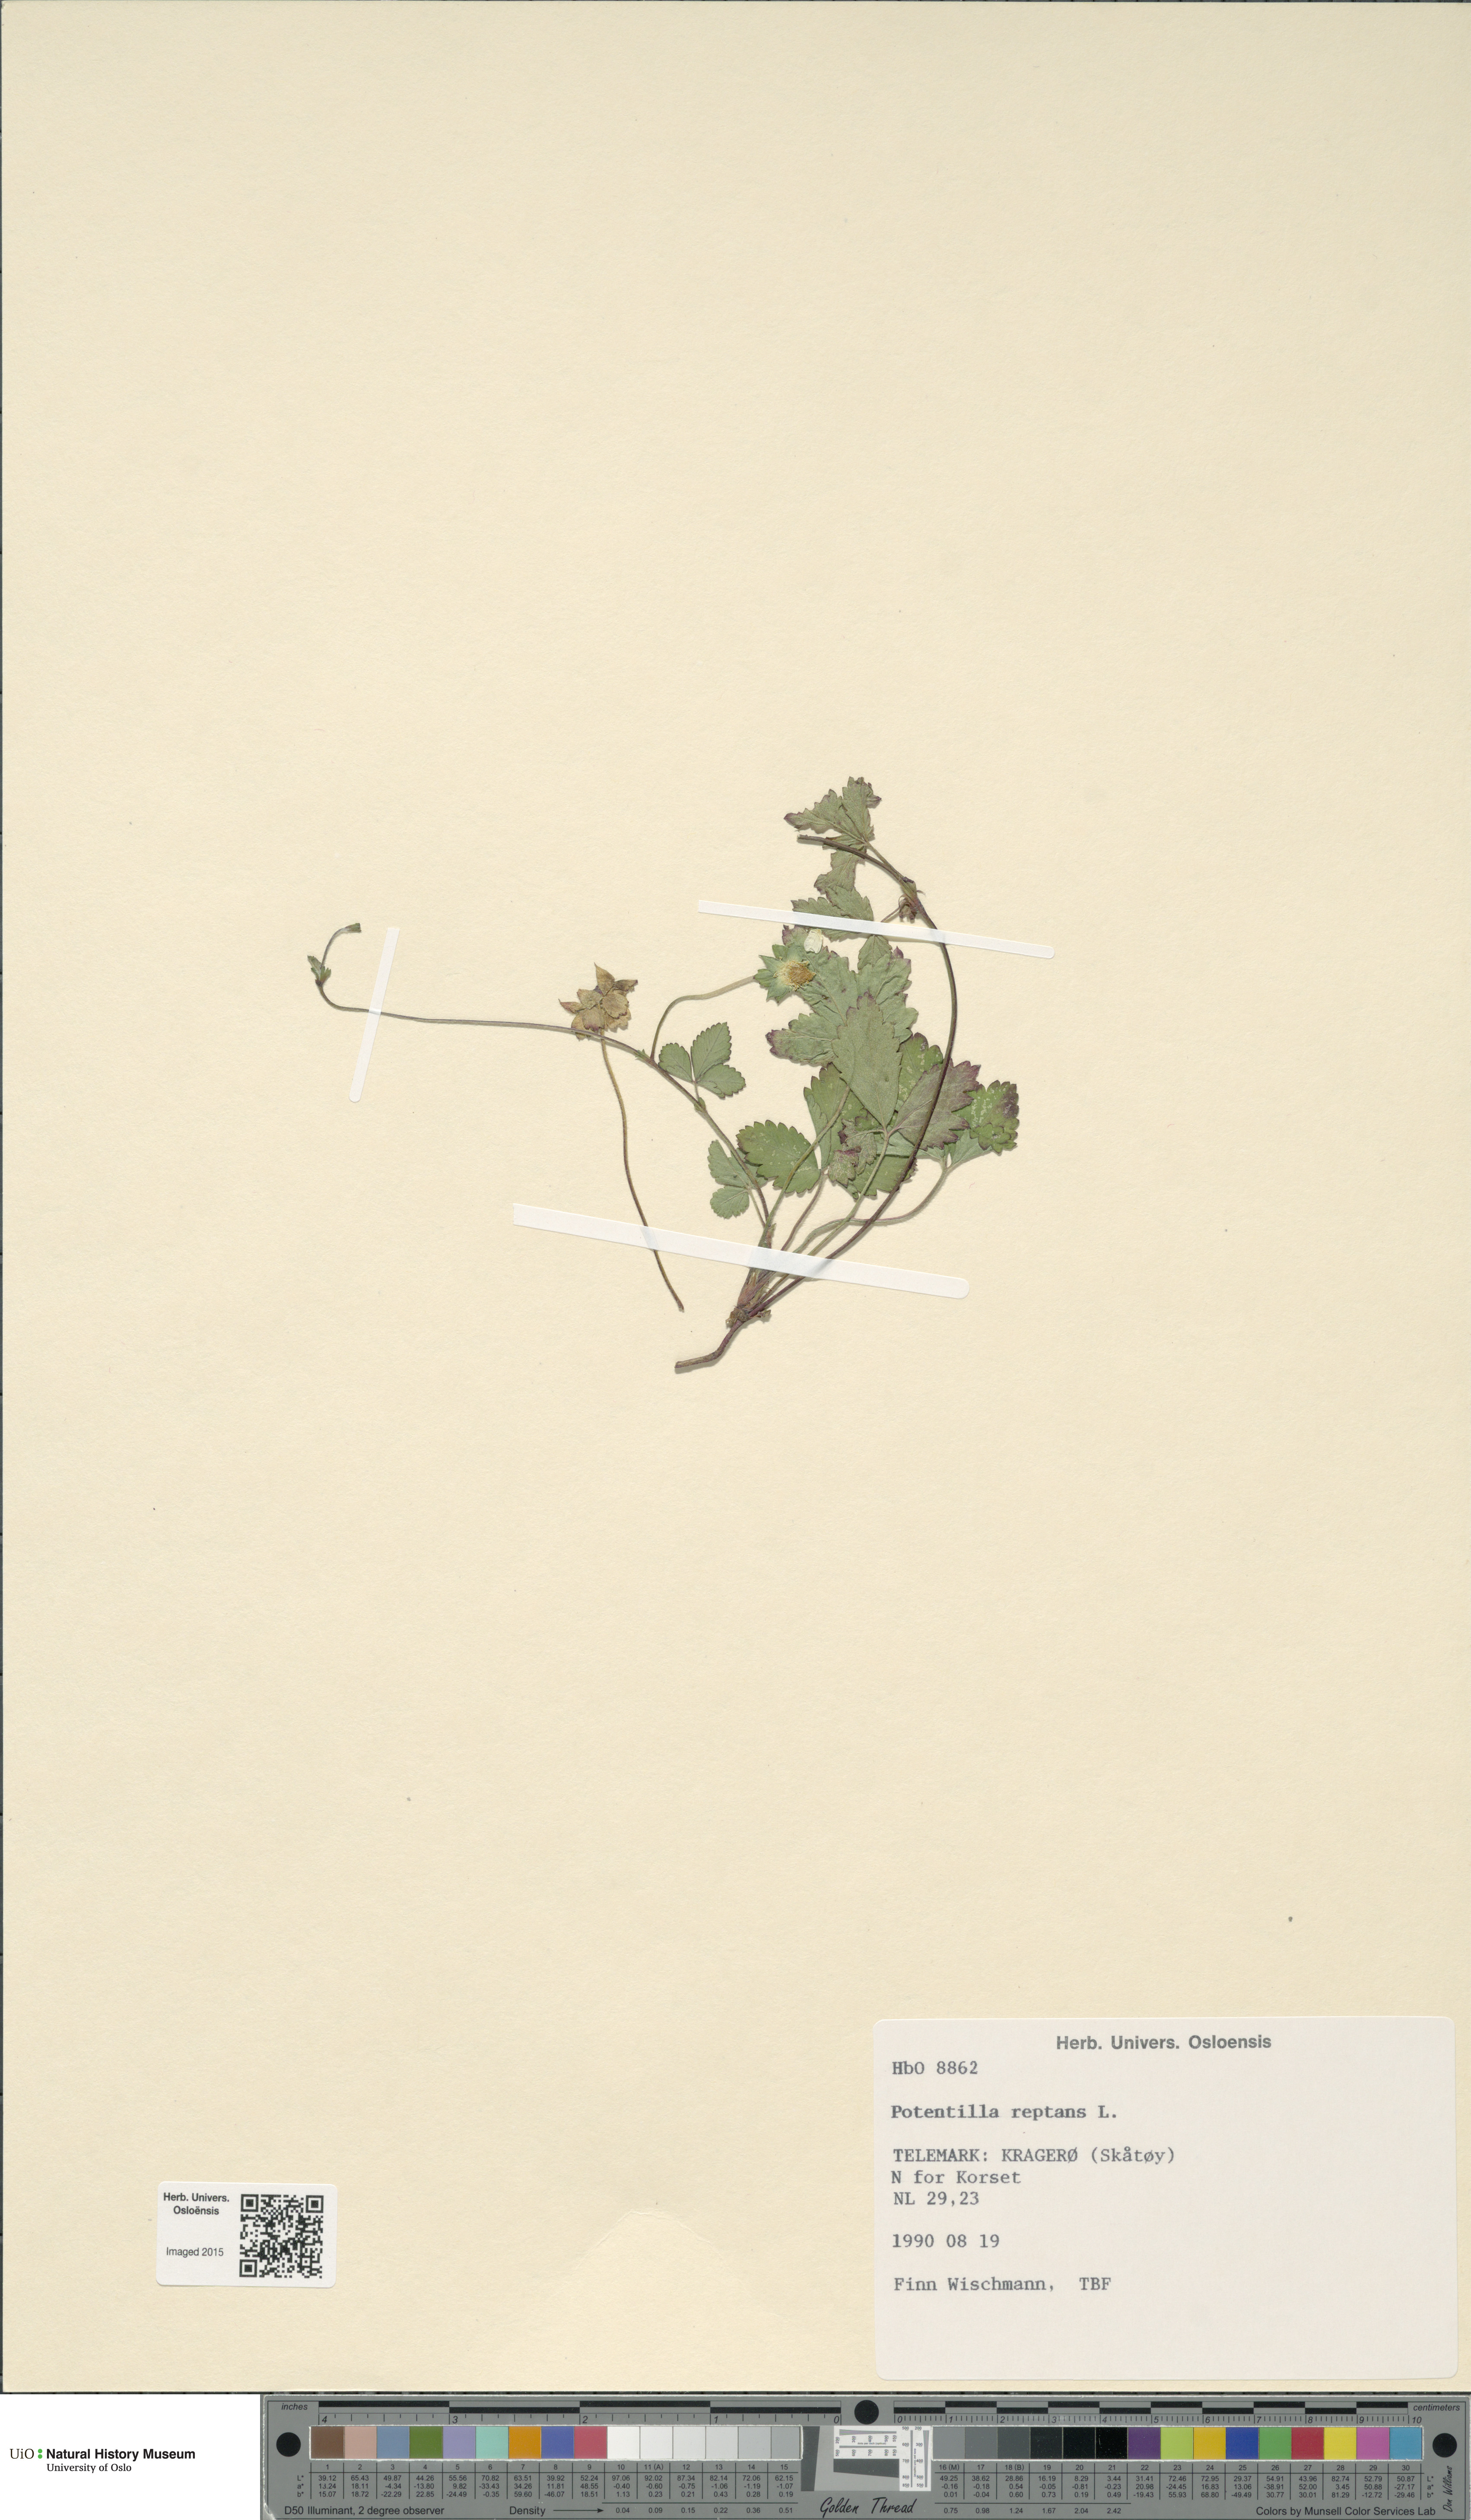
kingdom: Plantae
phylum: Tracheophyta
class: Magnoliopsida
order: Rosales
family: Rosaceae
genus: Potentilla
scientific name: Potentilla reptans
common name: Creeping cinquefoil
